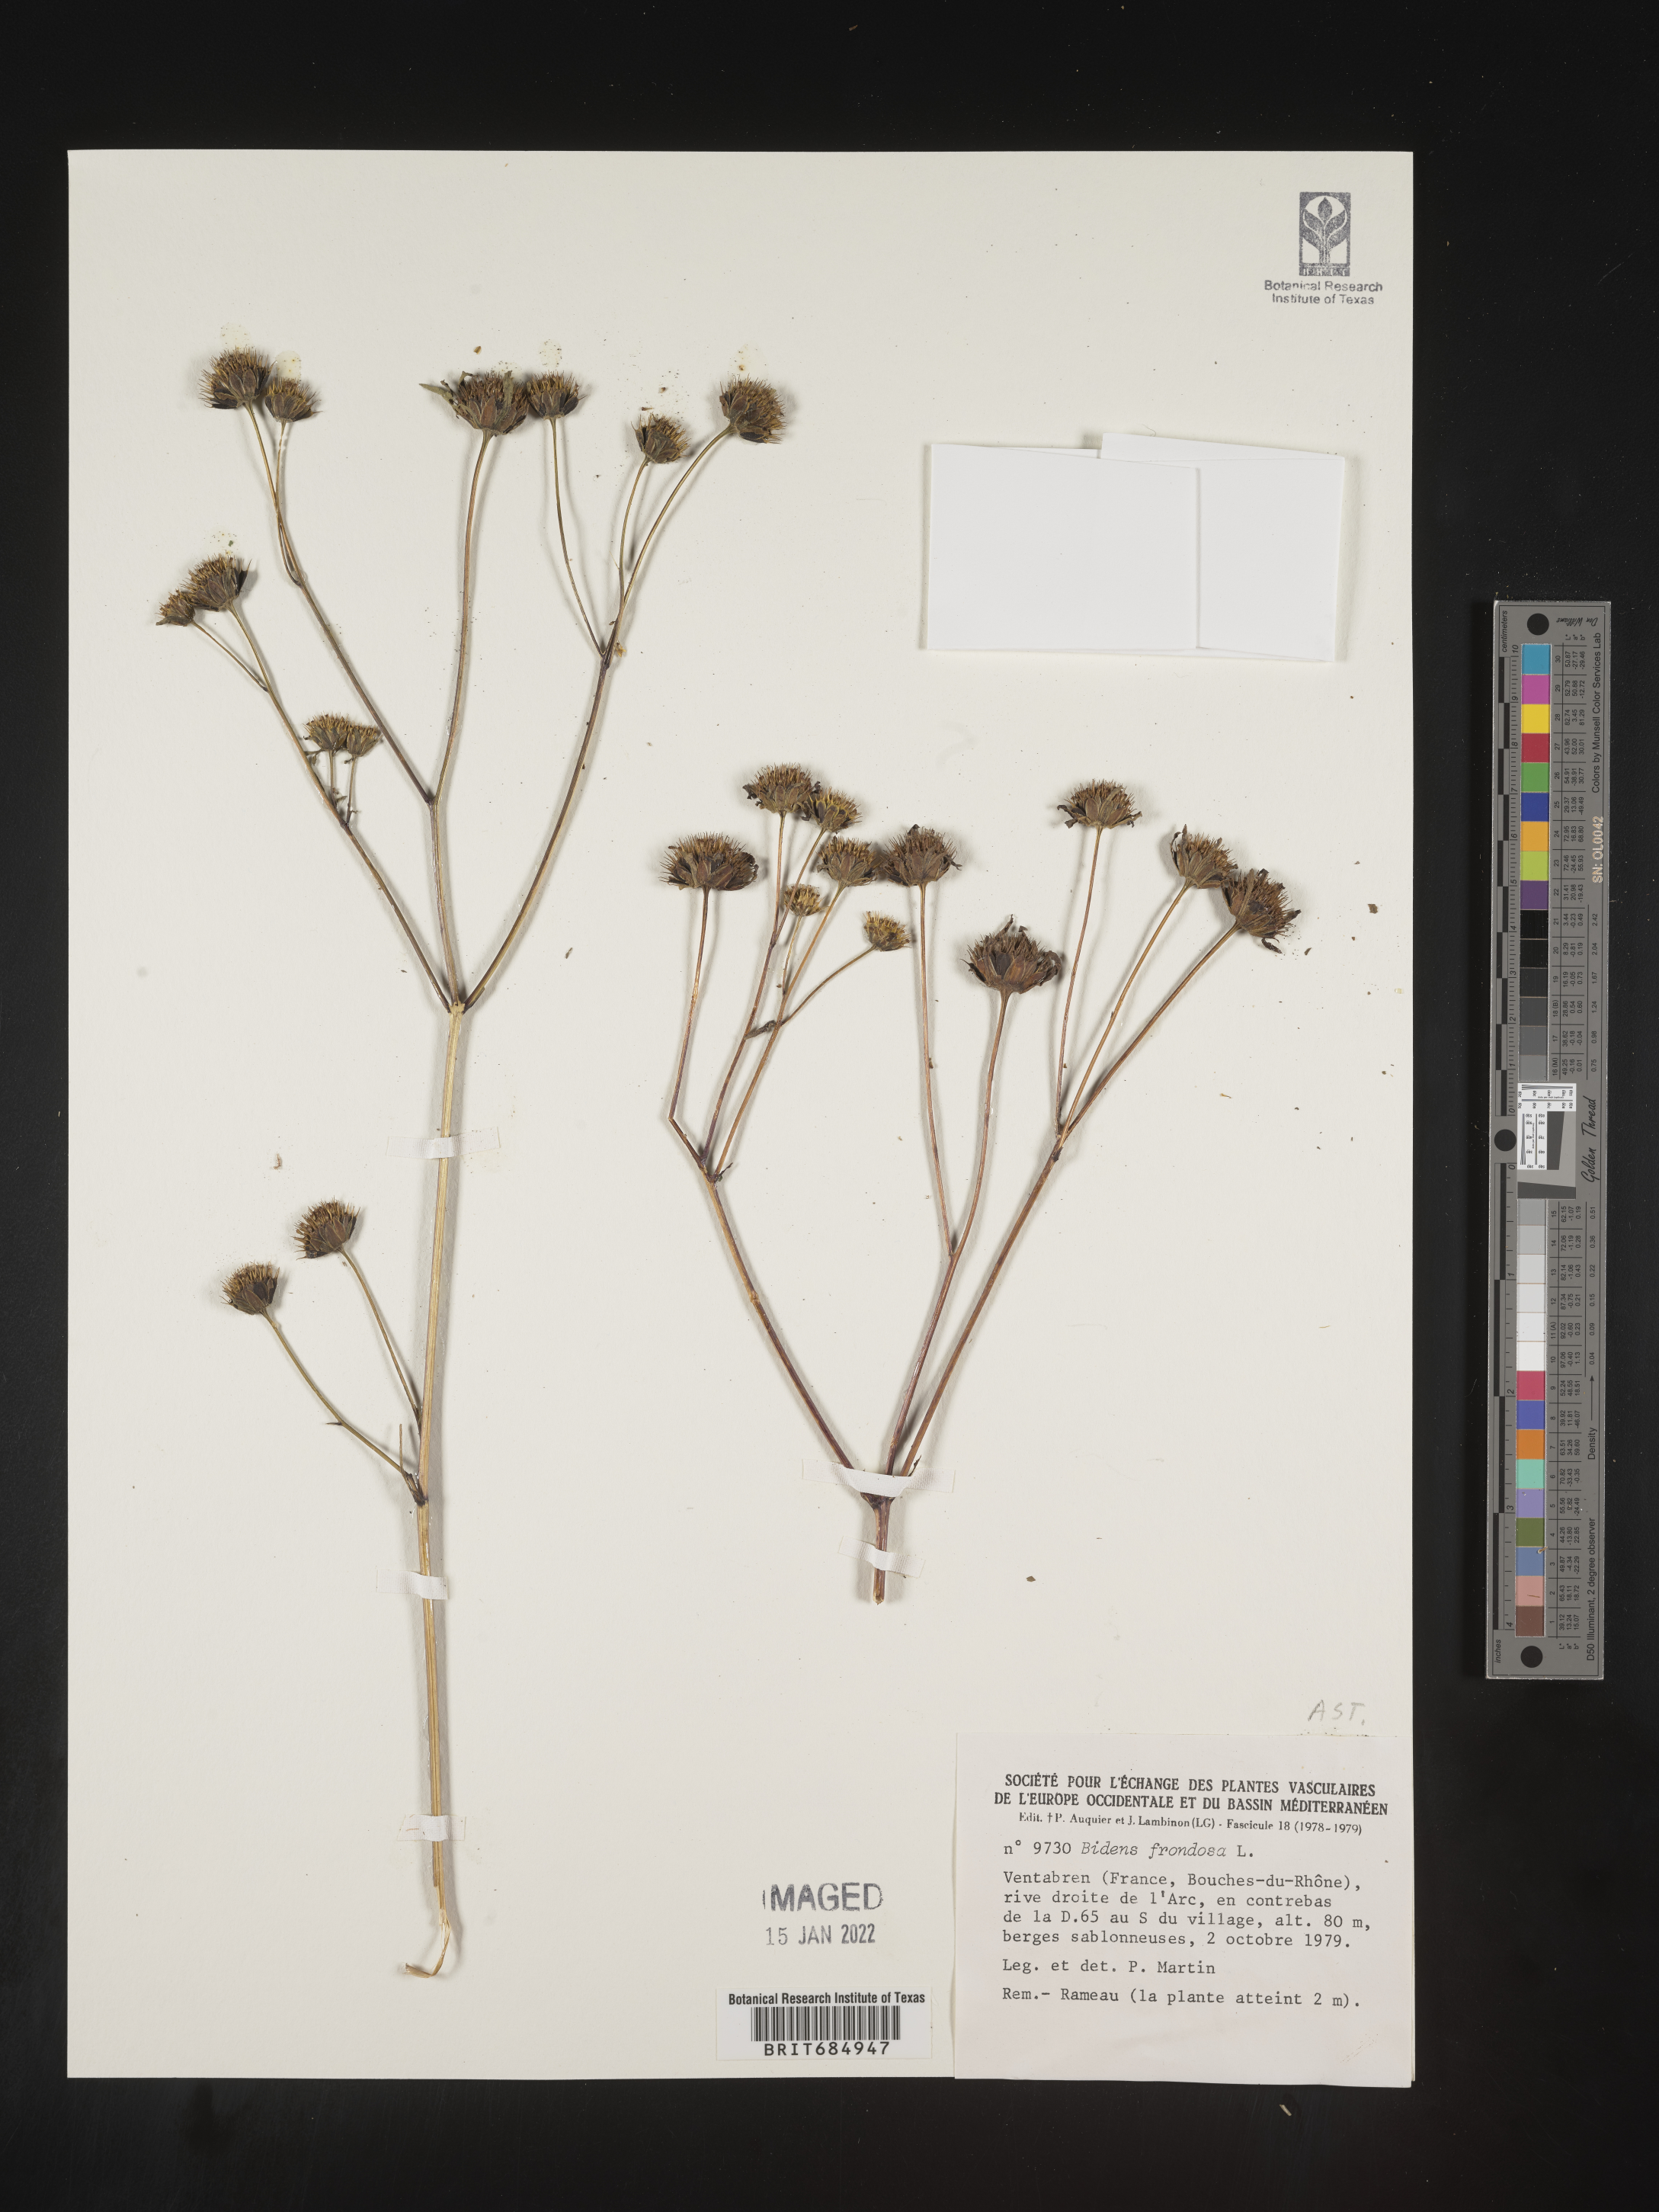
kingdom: Plantae
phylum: Tracheophyta
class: Magnoliopsida
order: Asterales
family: Asteraceae
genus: Bidens
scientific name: Bidens
